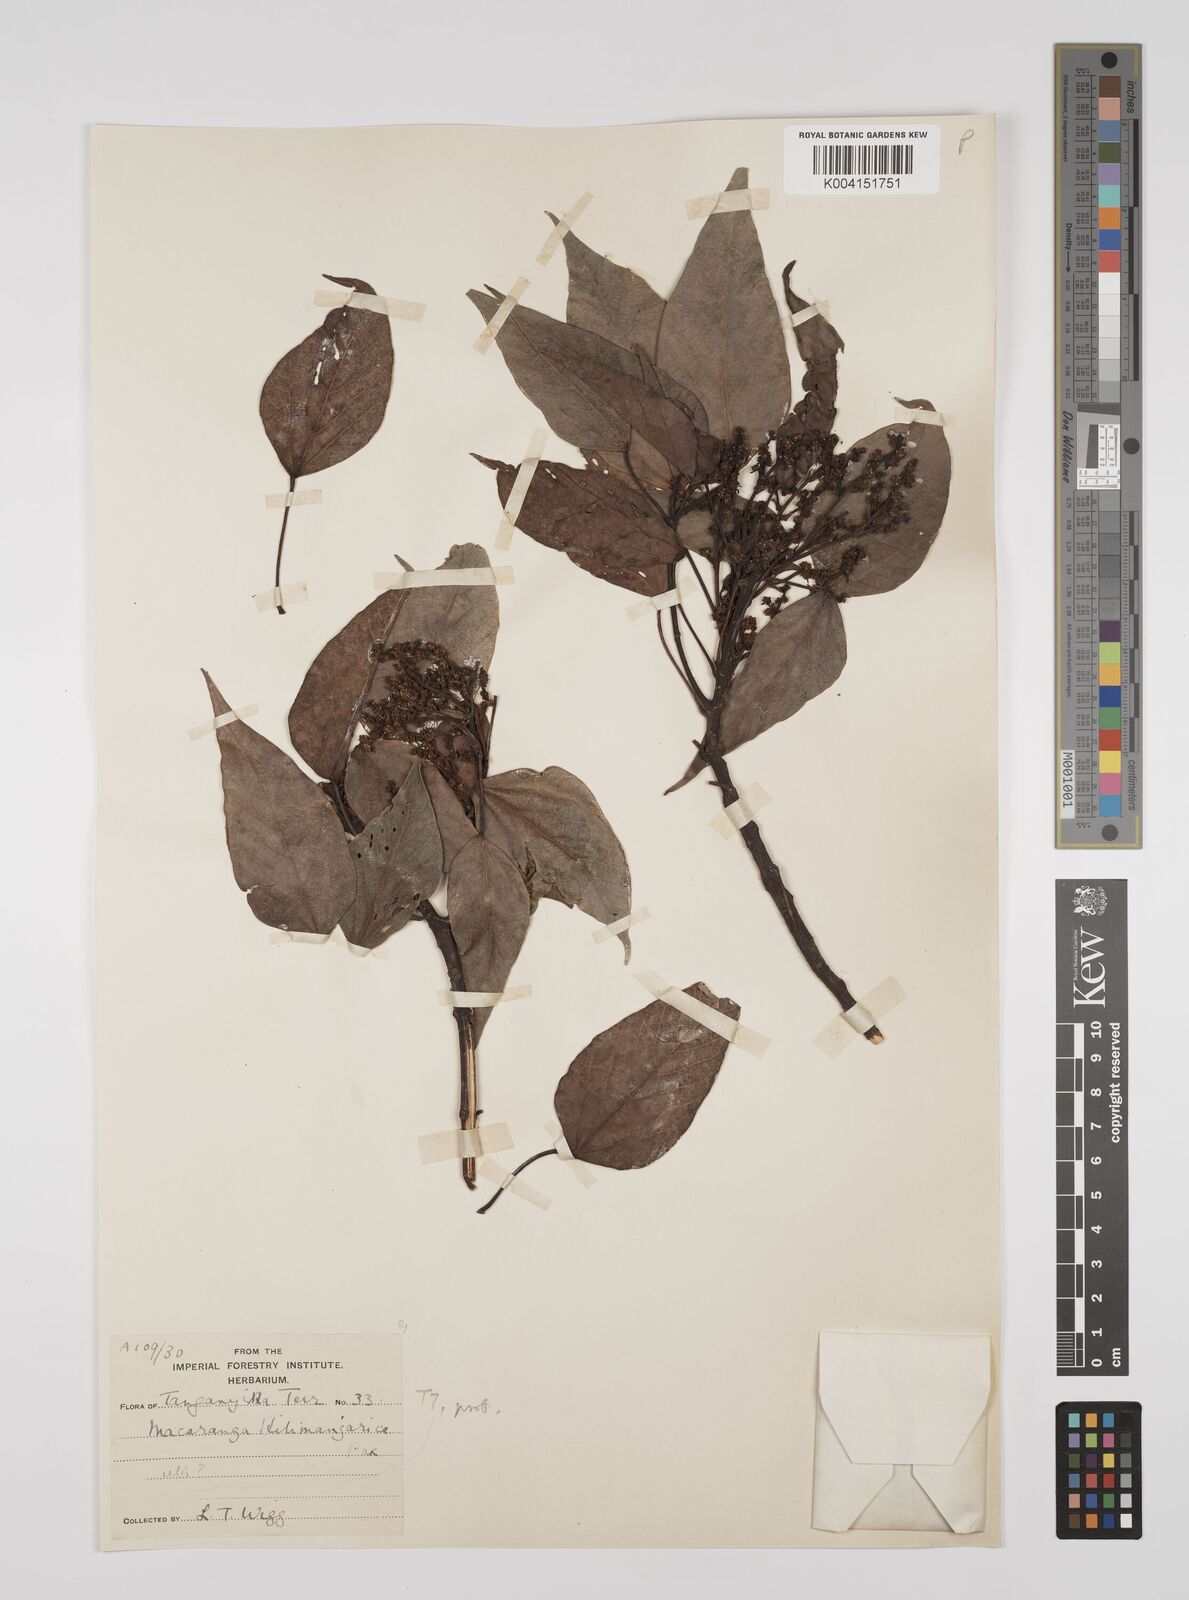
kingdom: Plantae
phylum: Tracheophyta
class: Magnoliopsida
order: Malpighiales
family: Euphorbiaceae
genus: Macaranga
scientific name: Macaranga kilimandscharica
